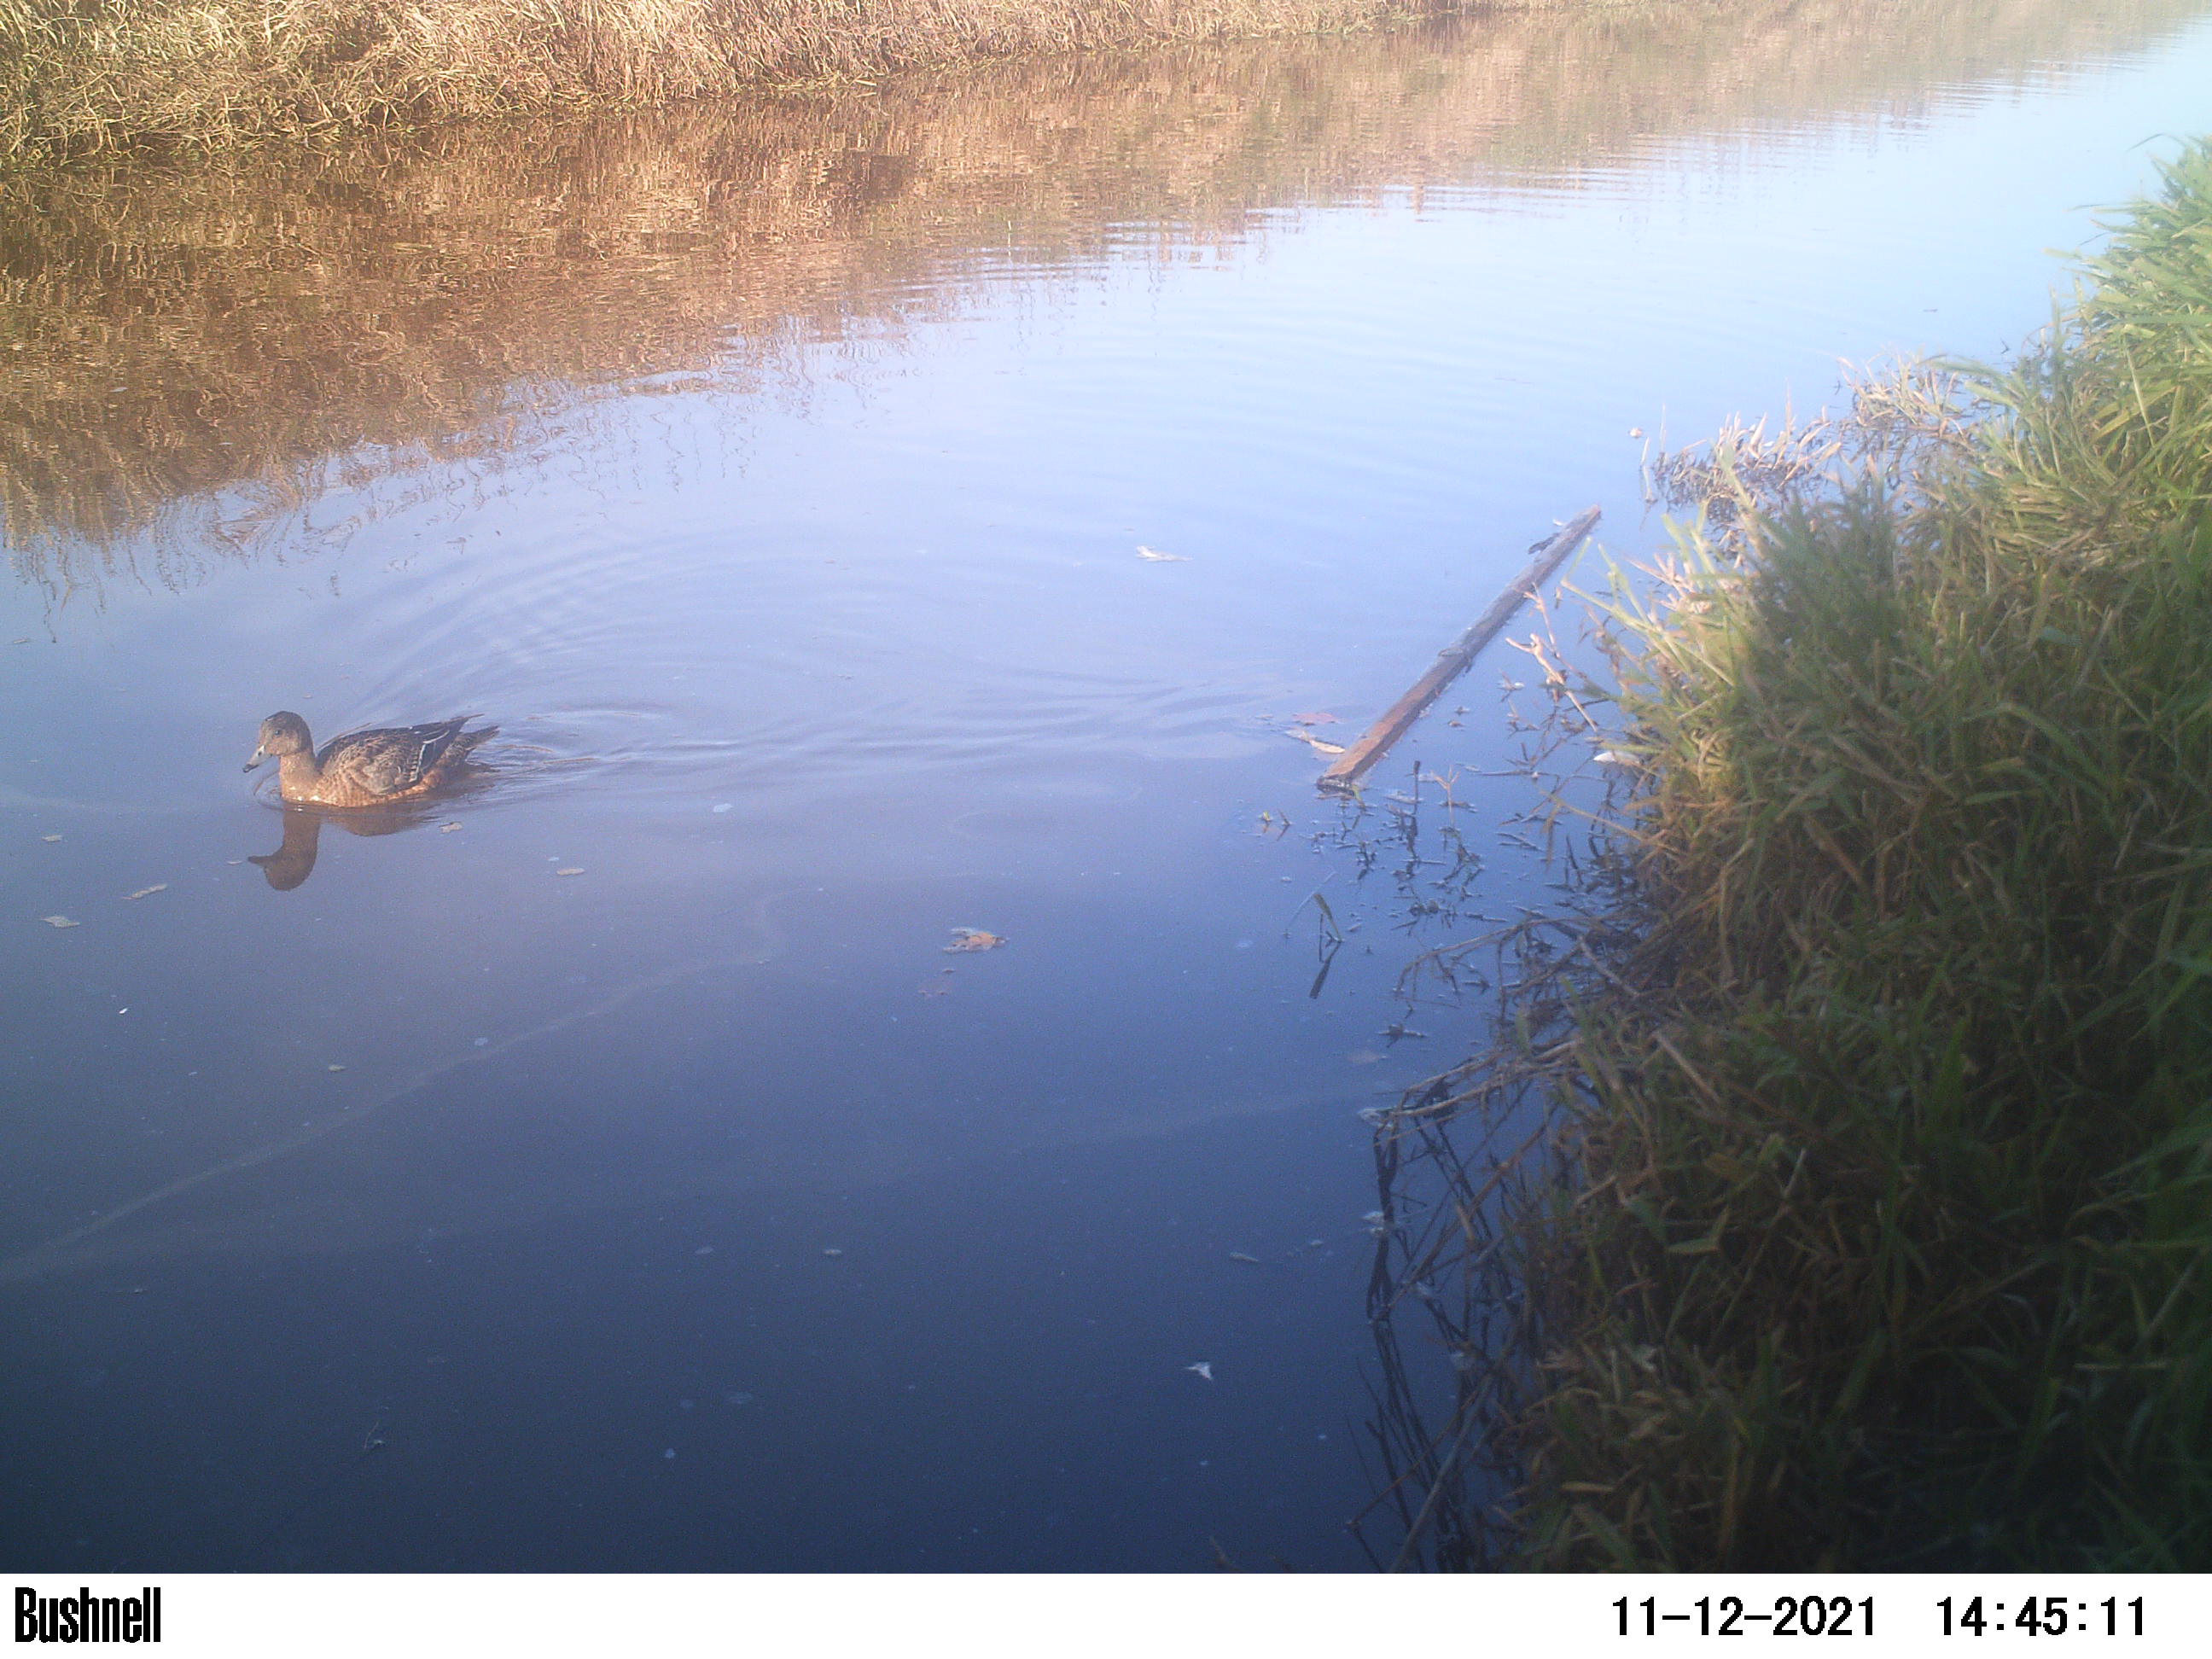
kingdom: Animalia
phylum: Chordata
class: Aves
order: Anseriformes
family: Anatidae
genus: Anas
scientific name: Anas
